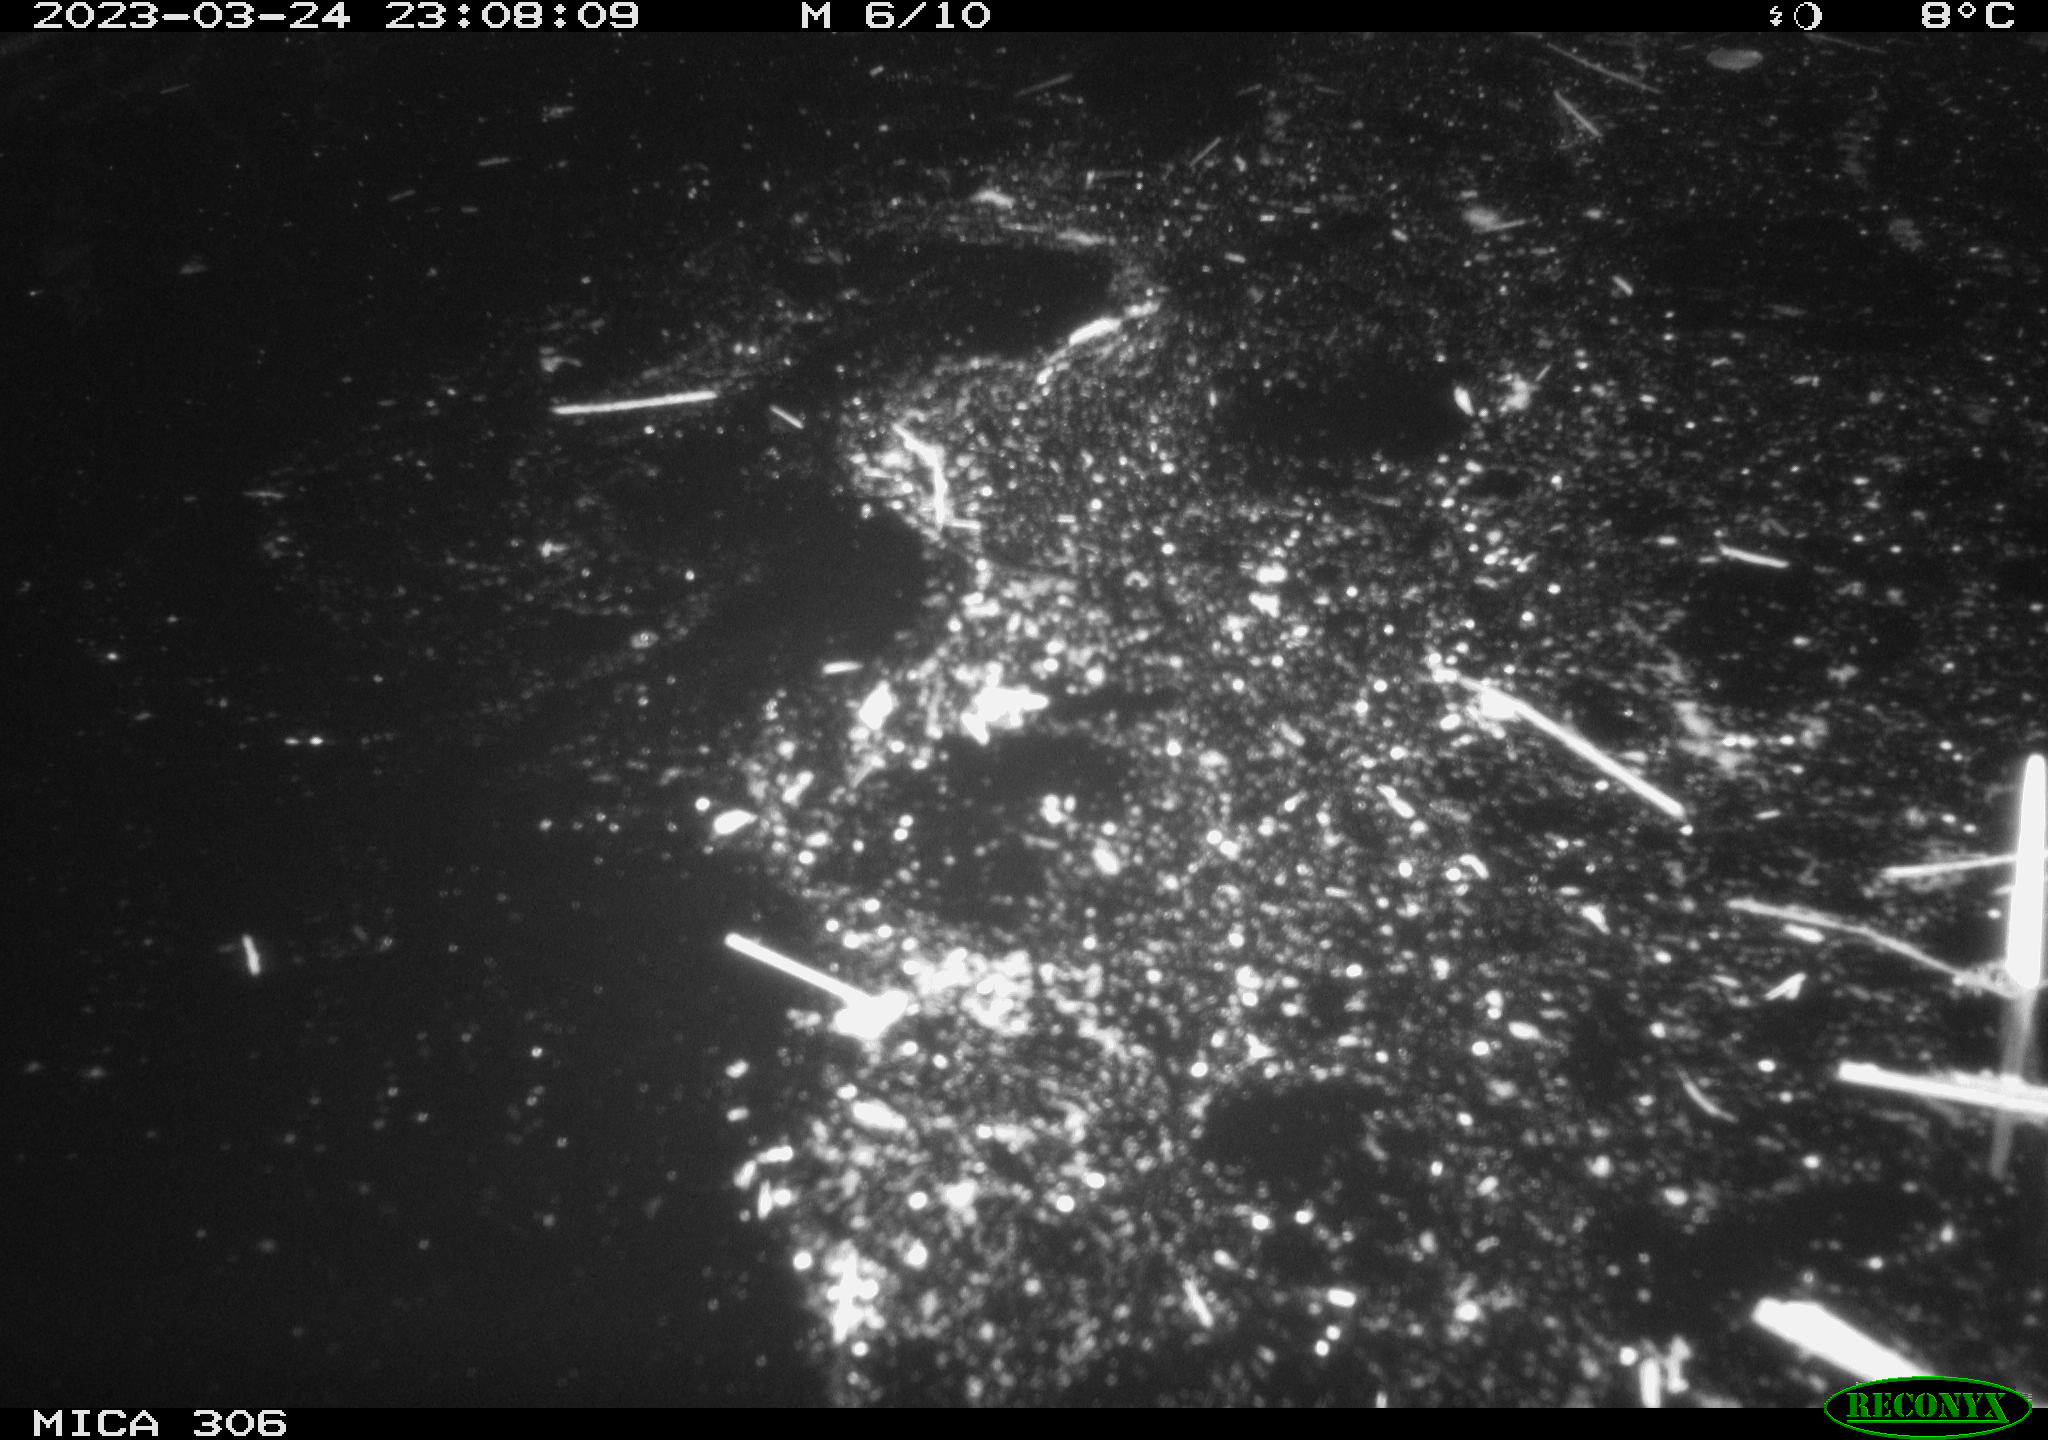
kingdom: Animalia
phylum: Chordata
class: Mammalia
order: Rodentia
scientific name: Rodentia
